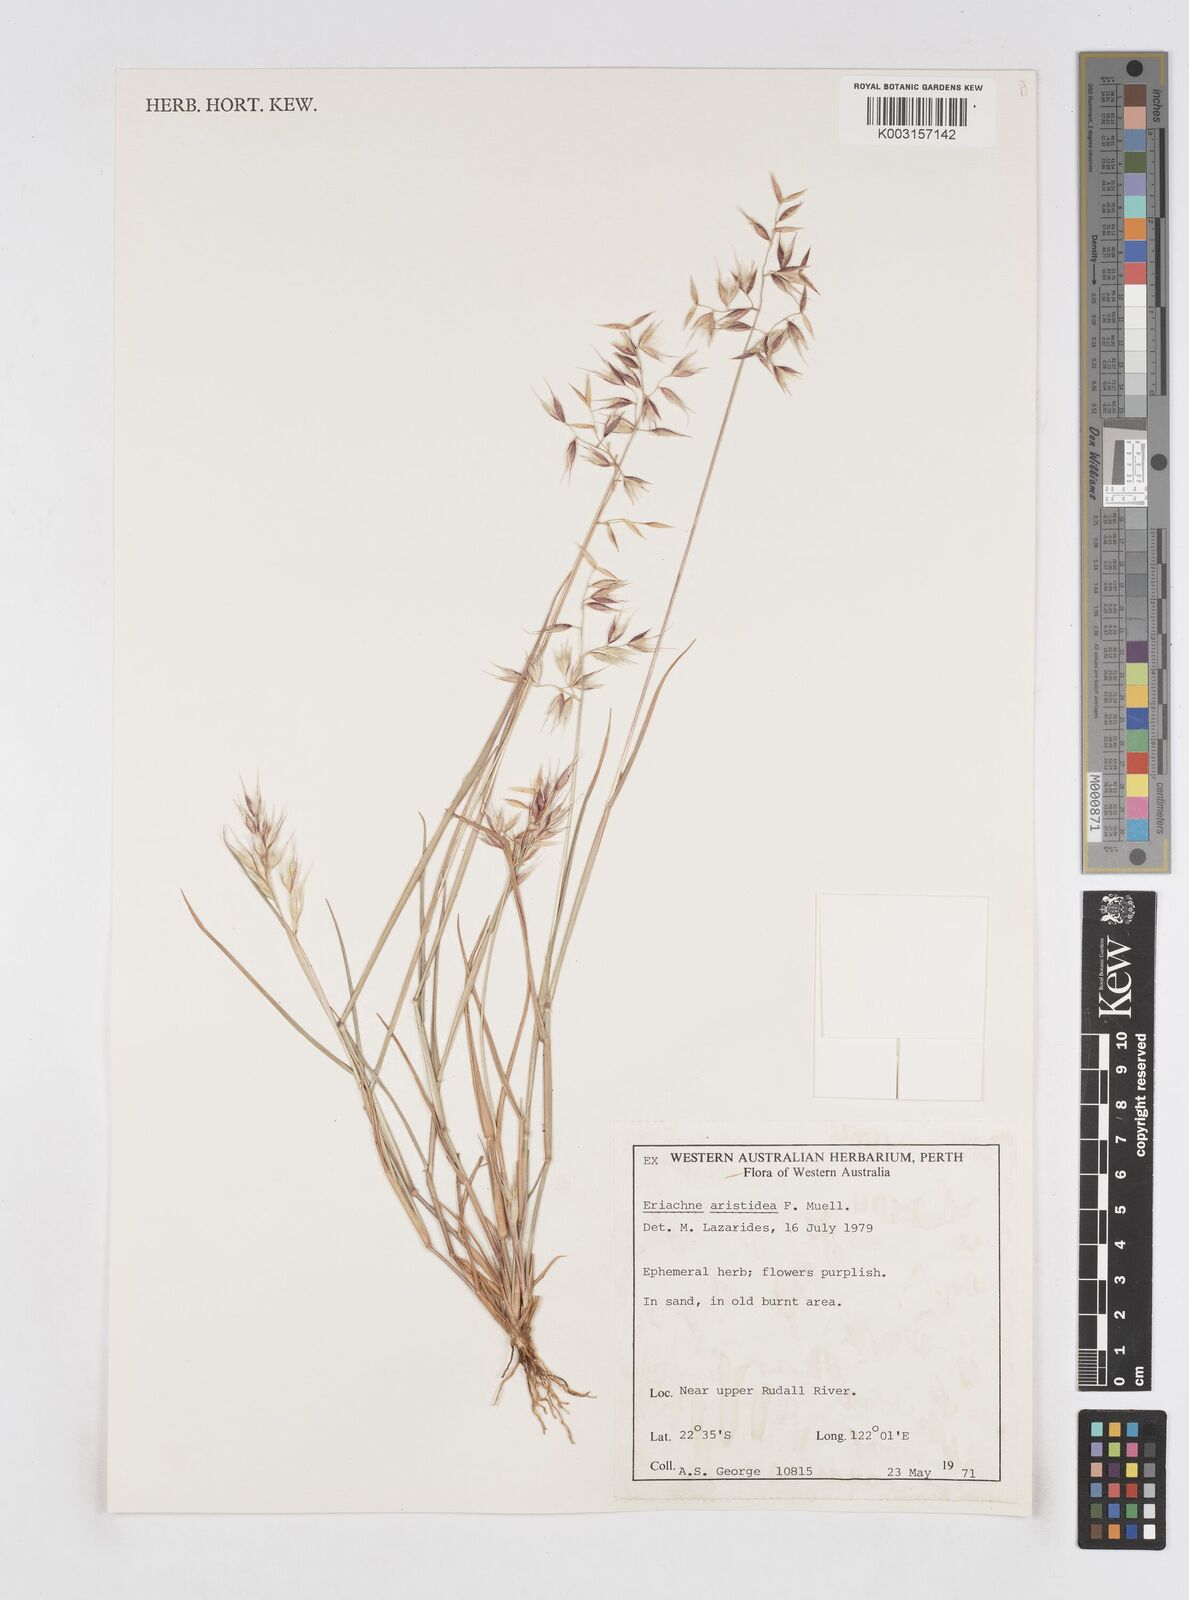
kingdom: Plantae
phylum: Tracheophyta
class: Liliopsida
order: Poales
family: Poaceae
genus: Eriachne
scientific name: Eriachne aristidea
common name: Three-awn wanderrie grass
